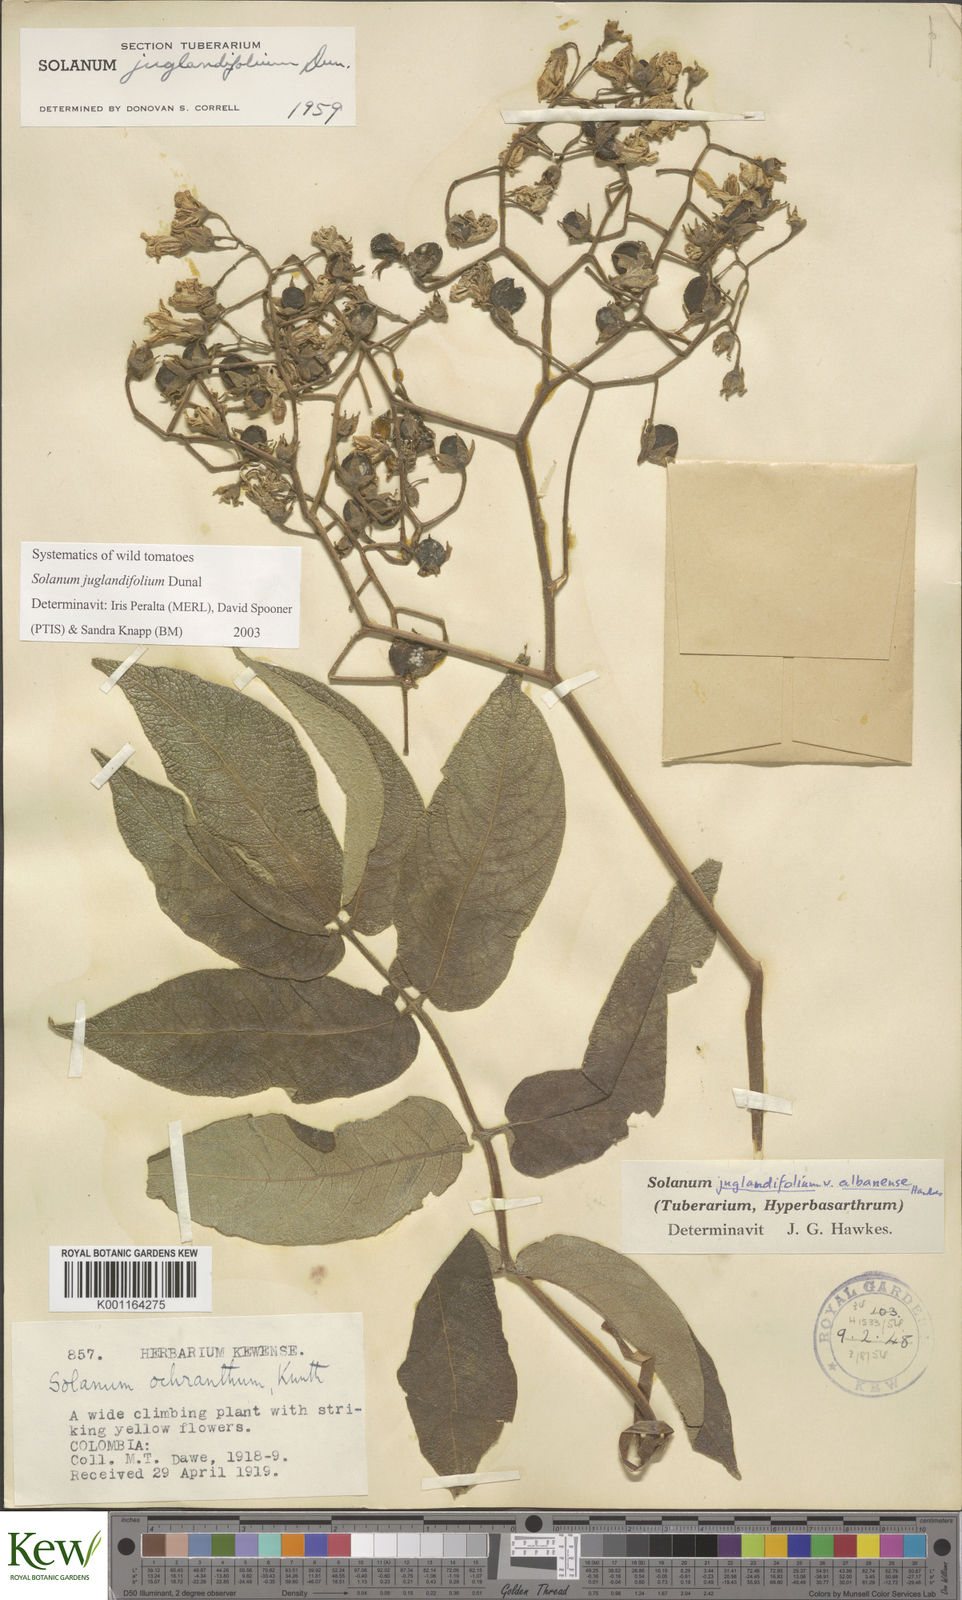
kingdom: Plantae
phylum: Tracheophyta
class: Magnoliopsida
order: Solanales
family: Solanaceae
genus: Solanum
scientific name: Solanum juglandifolium
